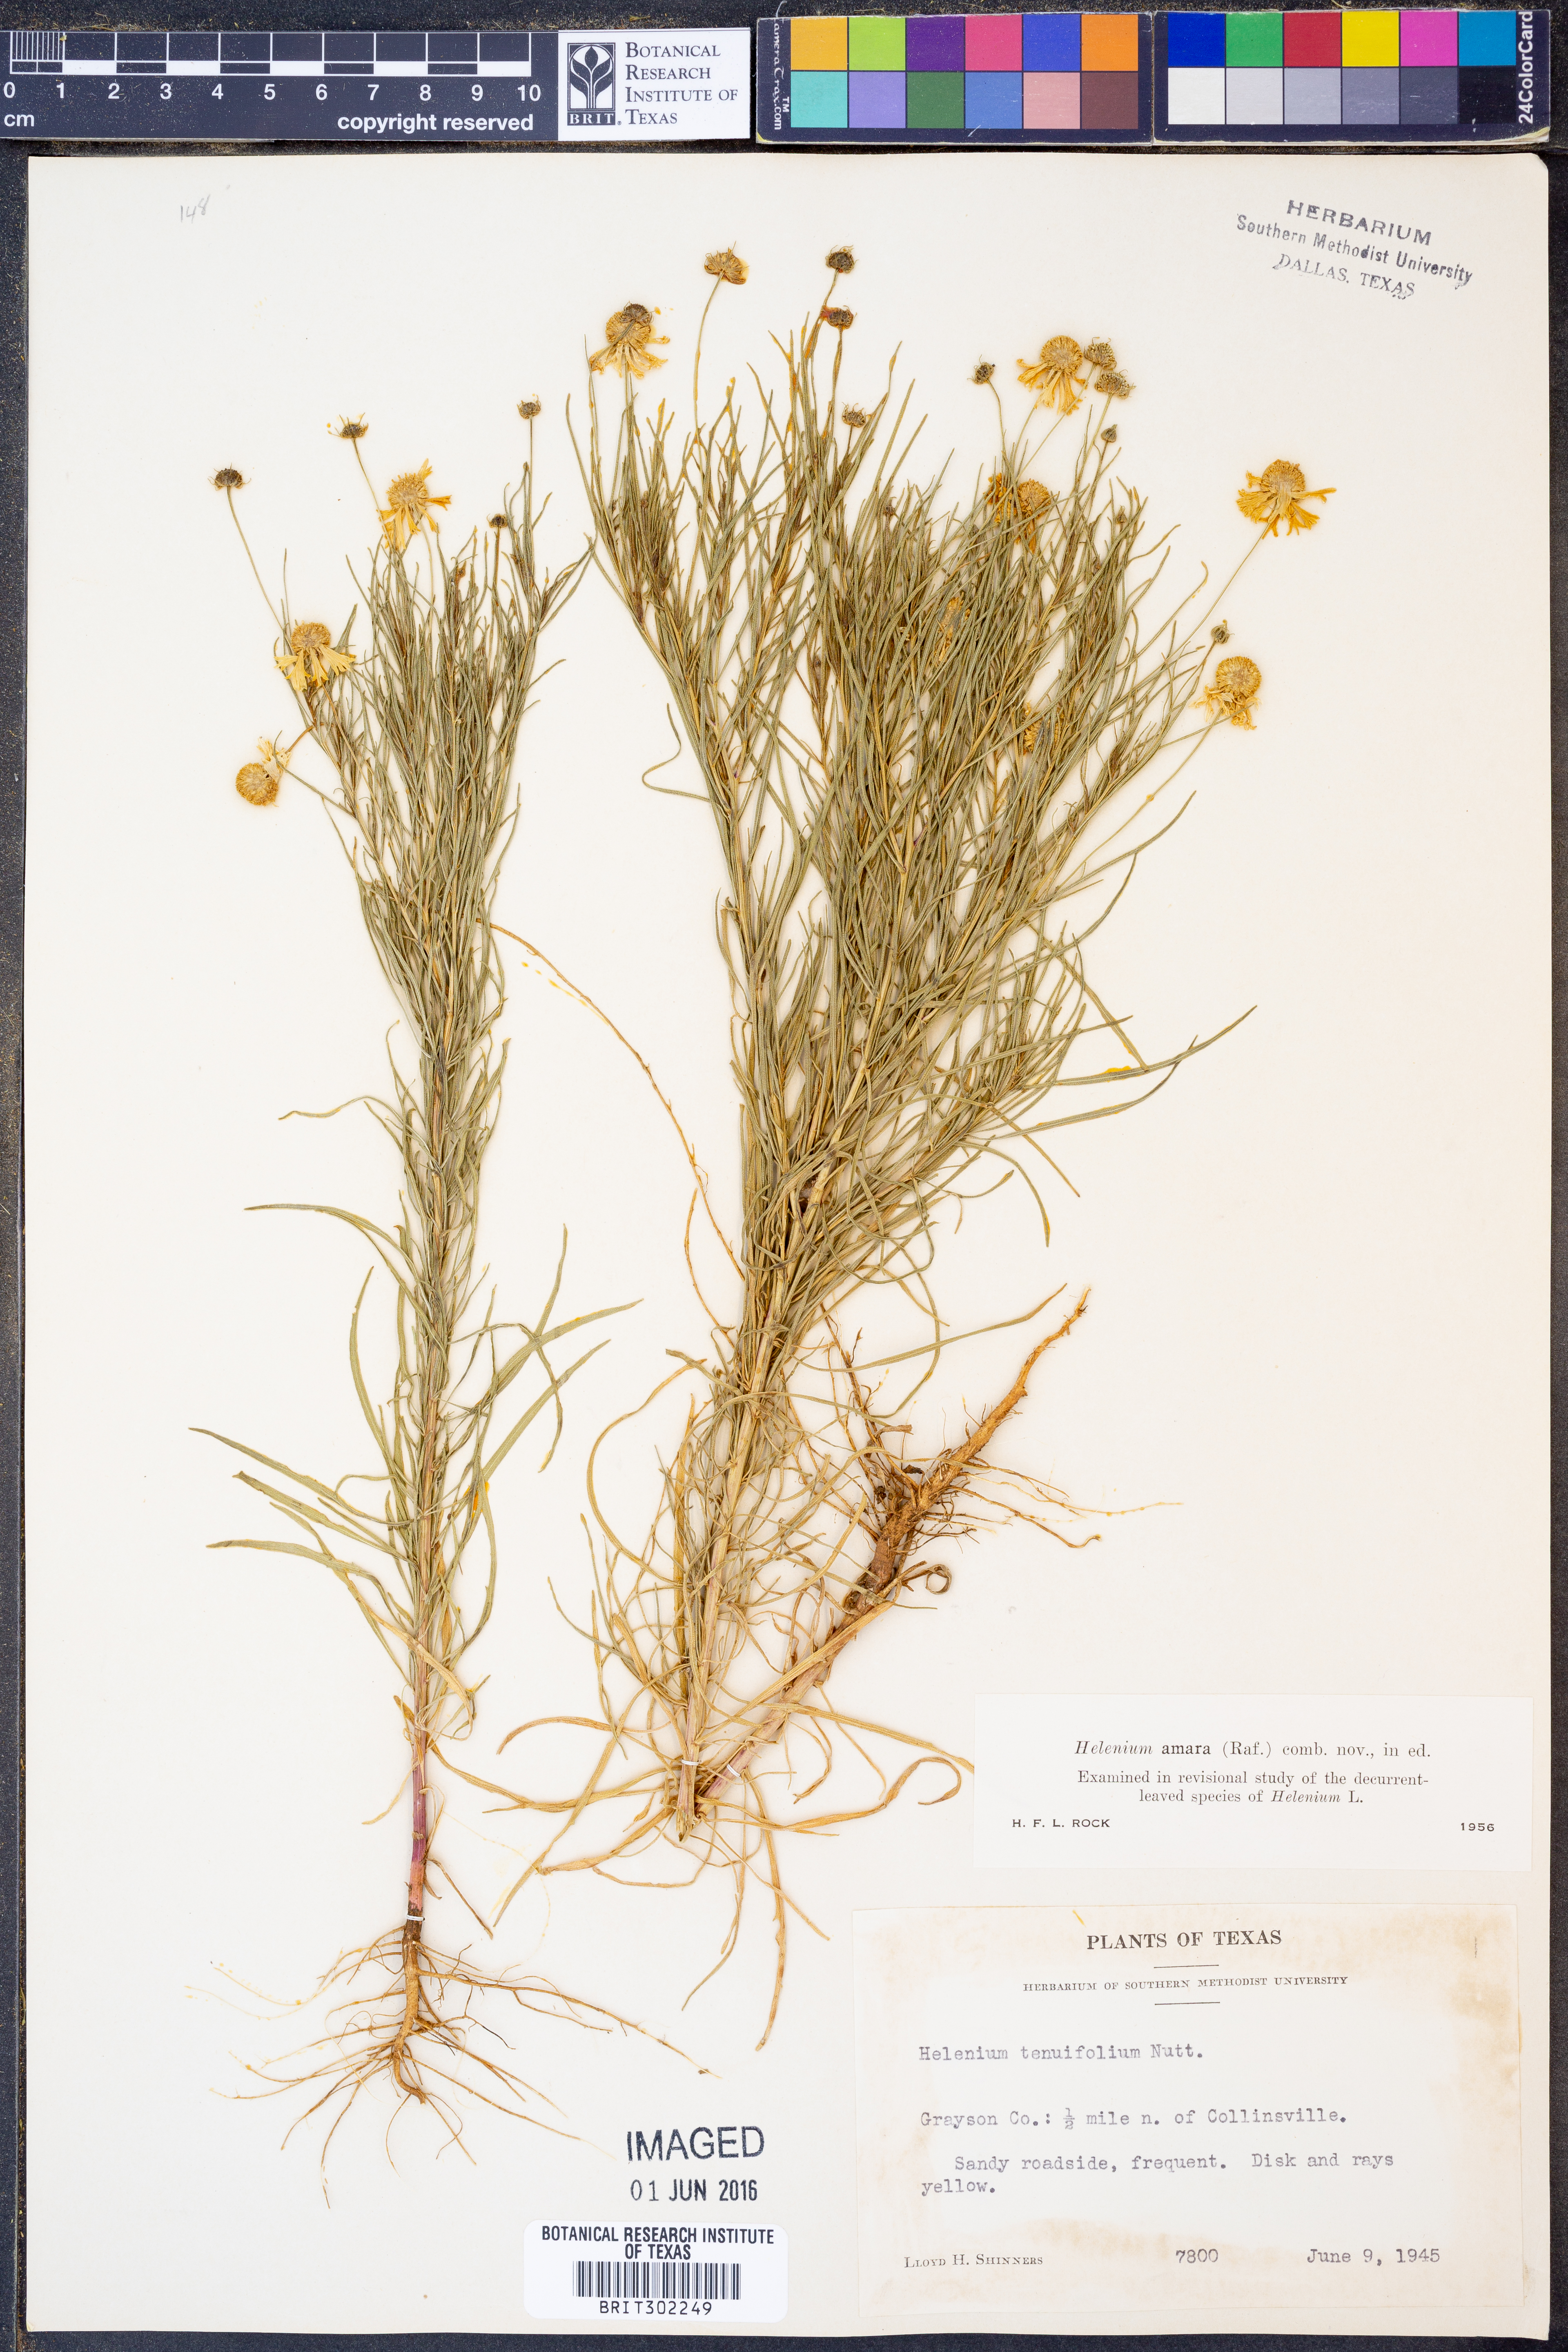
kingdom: Plantae
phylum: Tracheophyta
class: Magnoliopsida
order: Asterales
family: Asteraceae
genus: Helenium
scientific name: Helenium amarum
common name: Bitter sneezeweed
